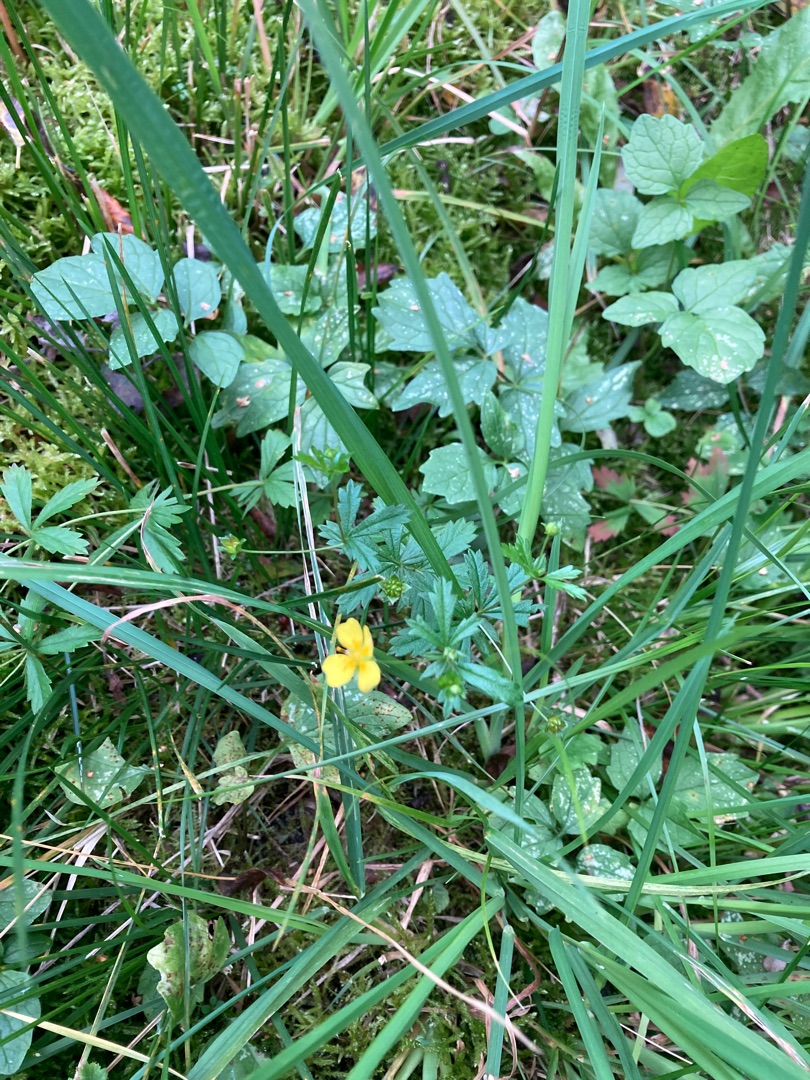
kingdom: Plantae
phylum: Tracheophyta
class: Magnoliopsida
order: Rosales
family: Rosaceae
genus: Potentilla
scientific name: Potentilla erecta
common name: Tormentil
